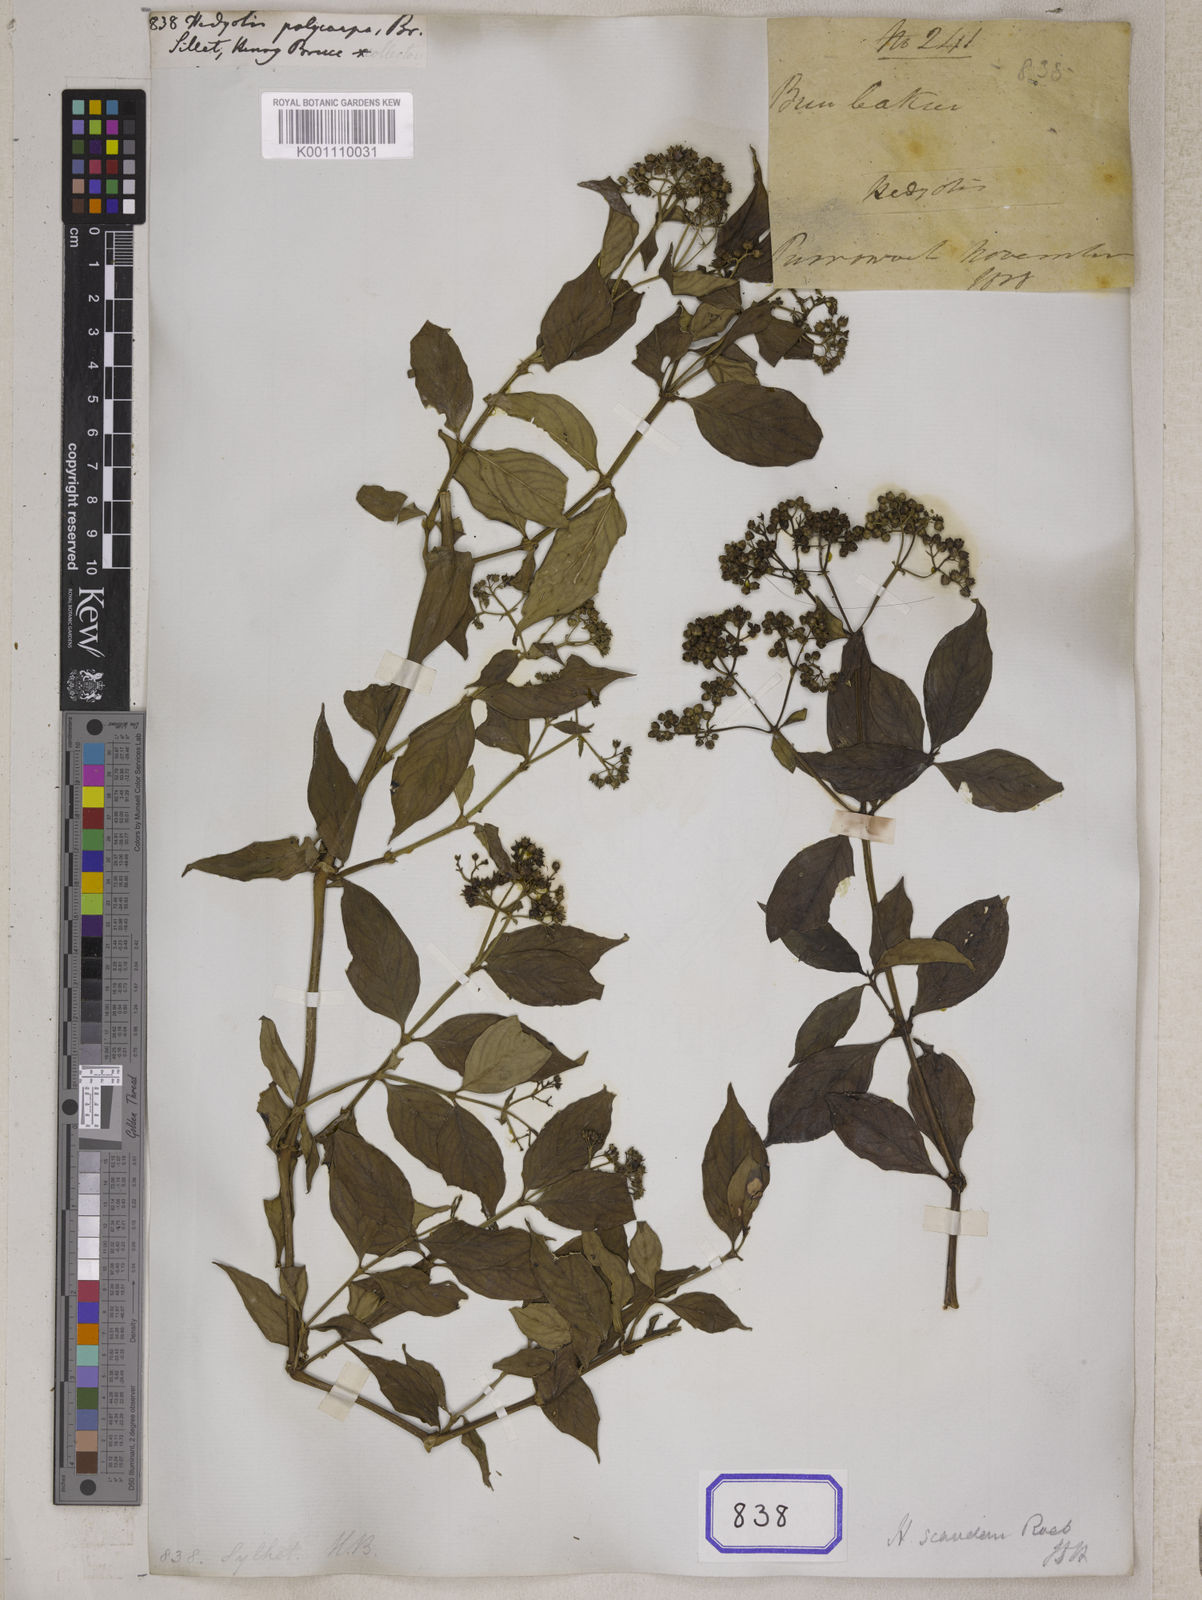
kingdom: Plantae
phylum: Tracheophyta
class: Magnoliopsida
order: Gentianales
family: Rubiaceae
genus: Hedyotis
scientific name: Hedyotis
